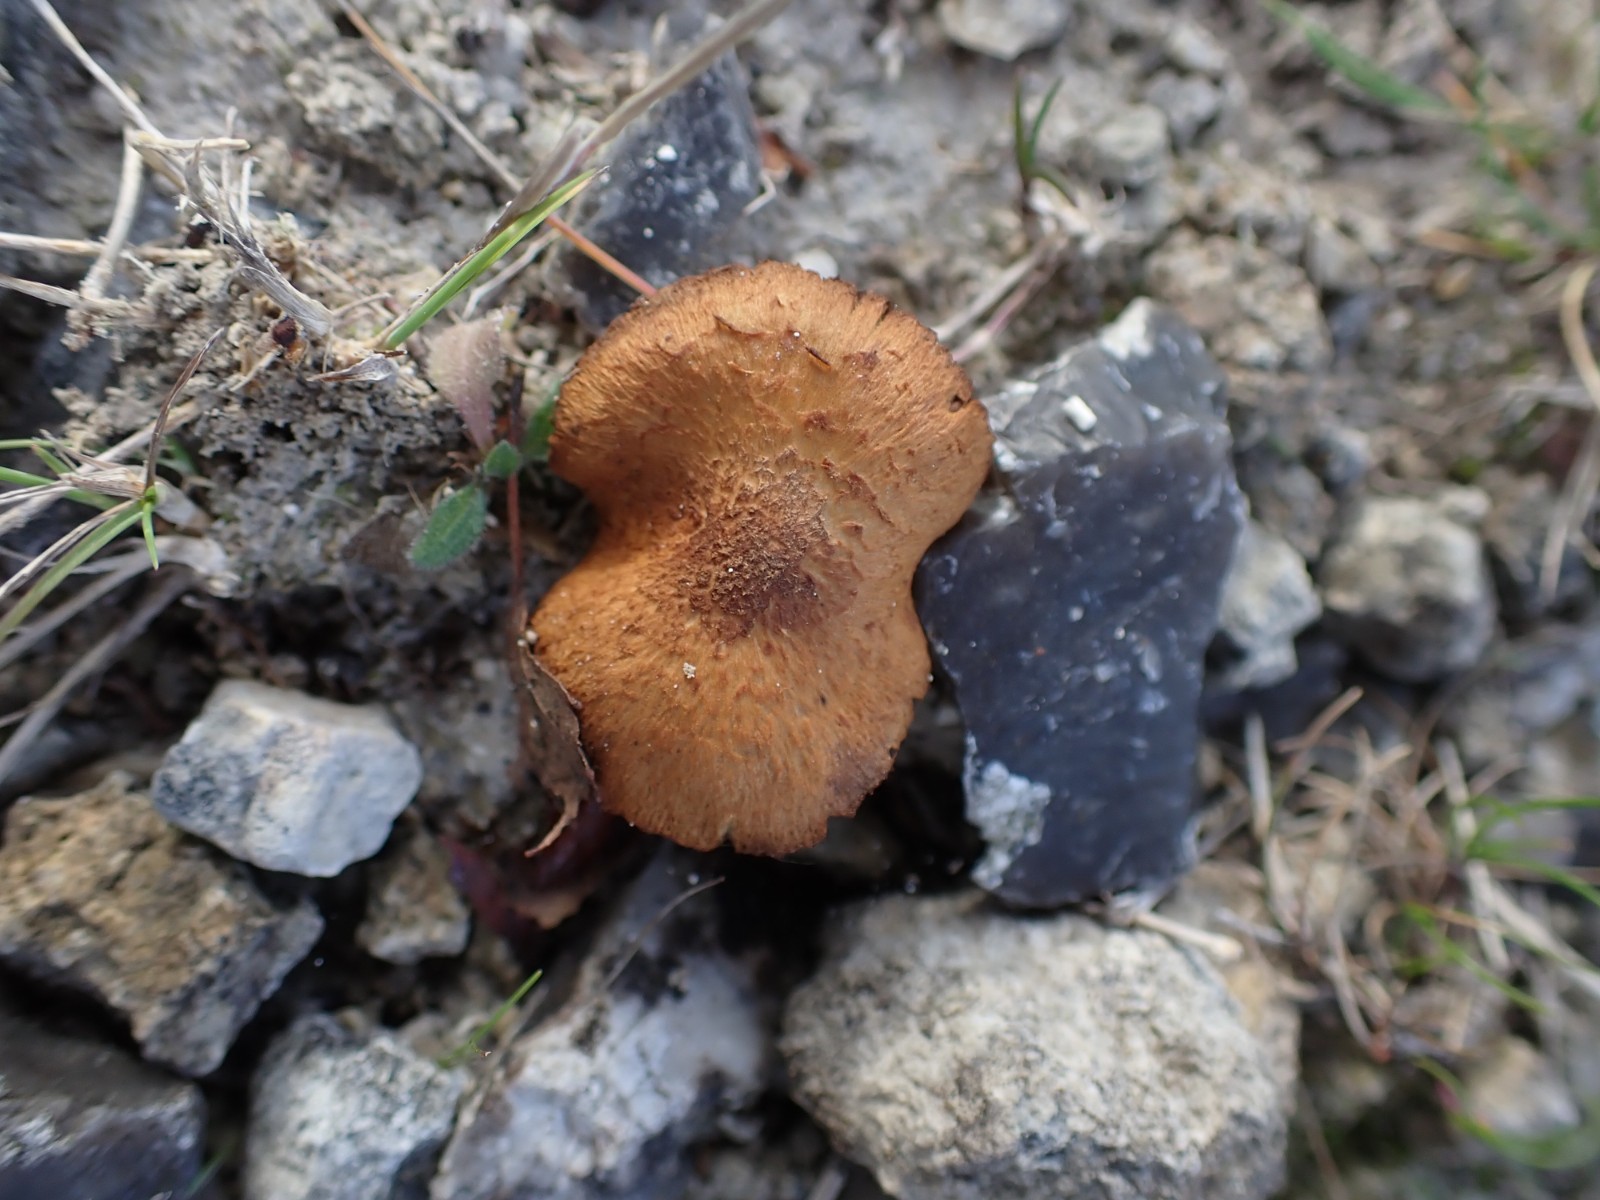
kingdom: Fungi
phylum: Basidiomycota
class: Agaricomycetes
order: Agaricales
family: Inocybaceae
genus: Mallocybe
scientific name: Mallocybe
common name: Trævlhat
